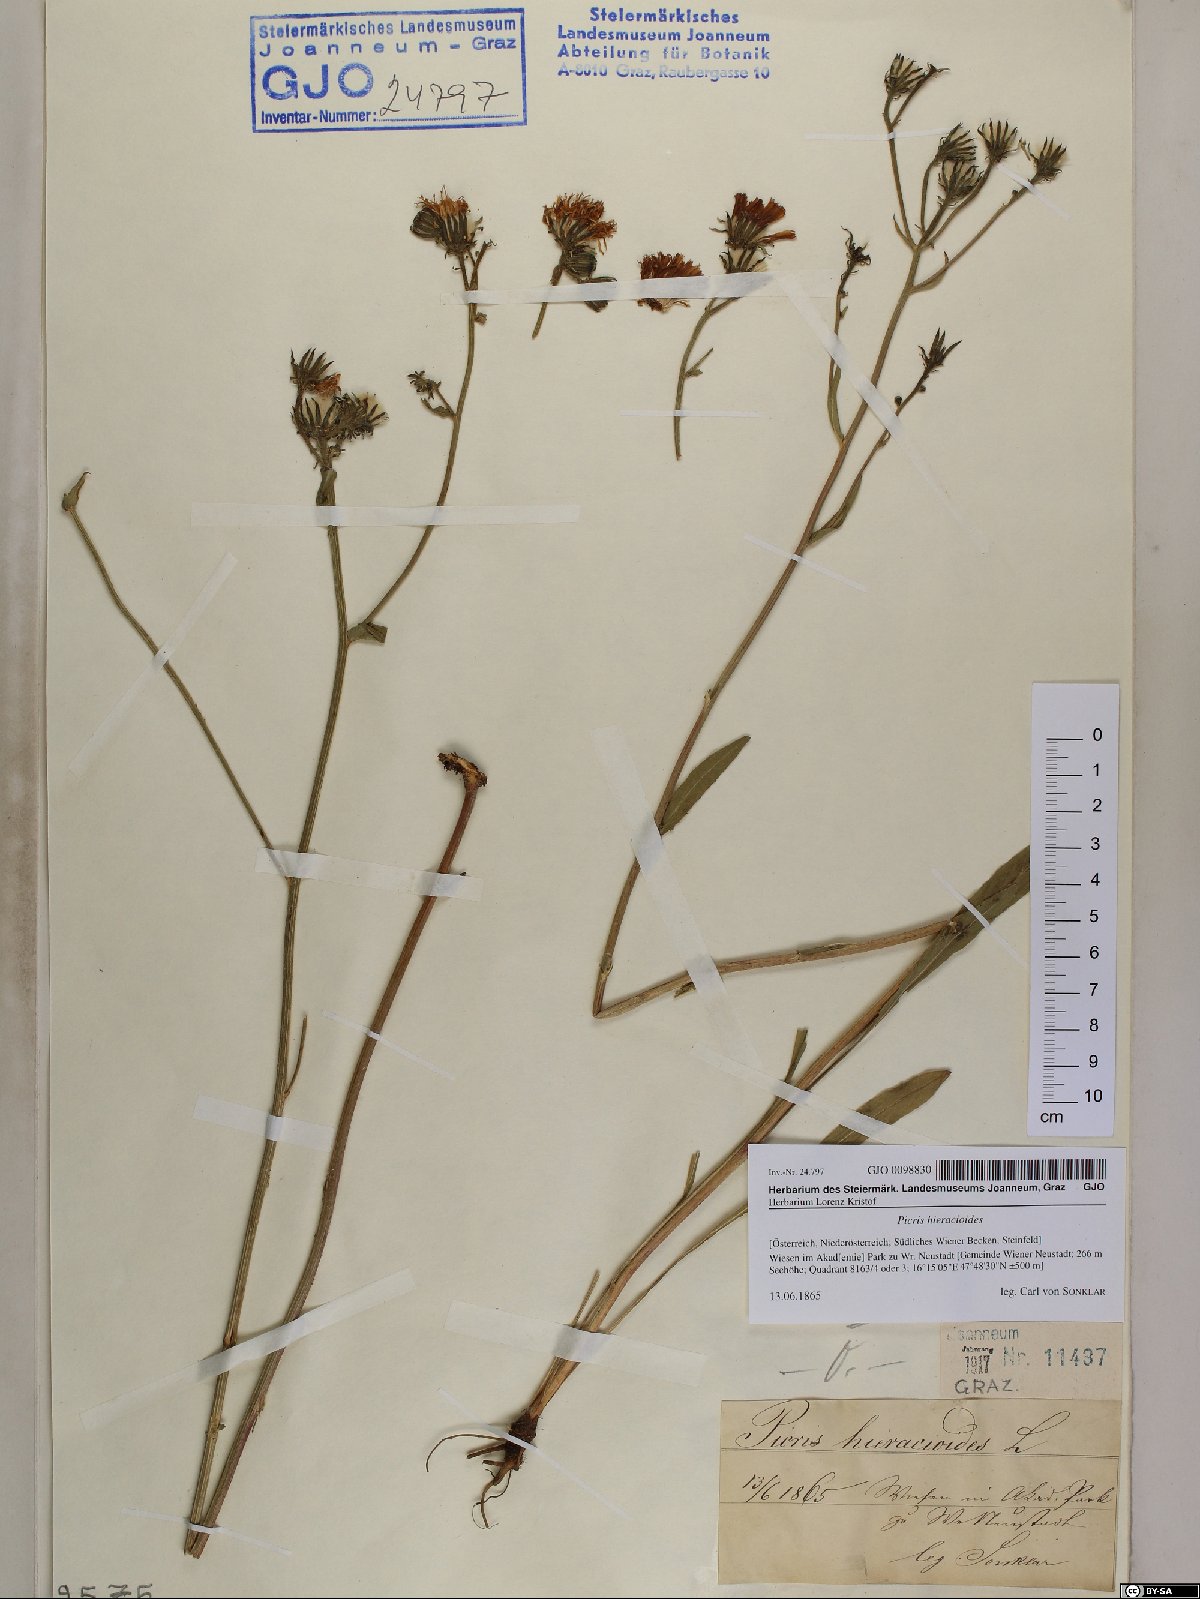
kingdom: Plantae
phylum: Tracheophyta
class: Magnoliopsida
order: Asterales
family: Asteraceae
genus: Picris
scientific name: Picris hieracioides
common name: Hawkweed oxtongue
